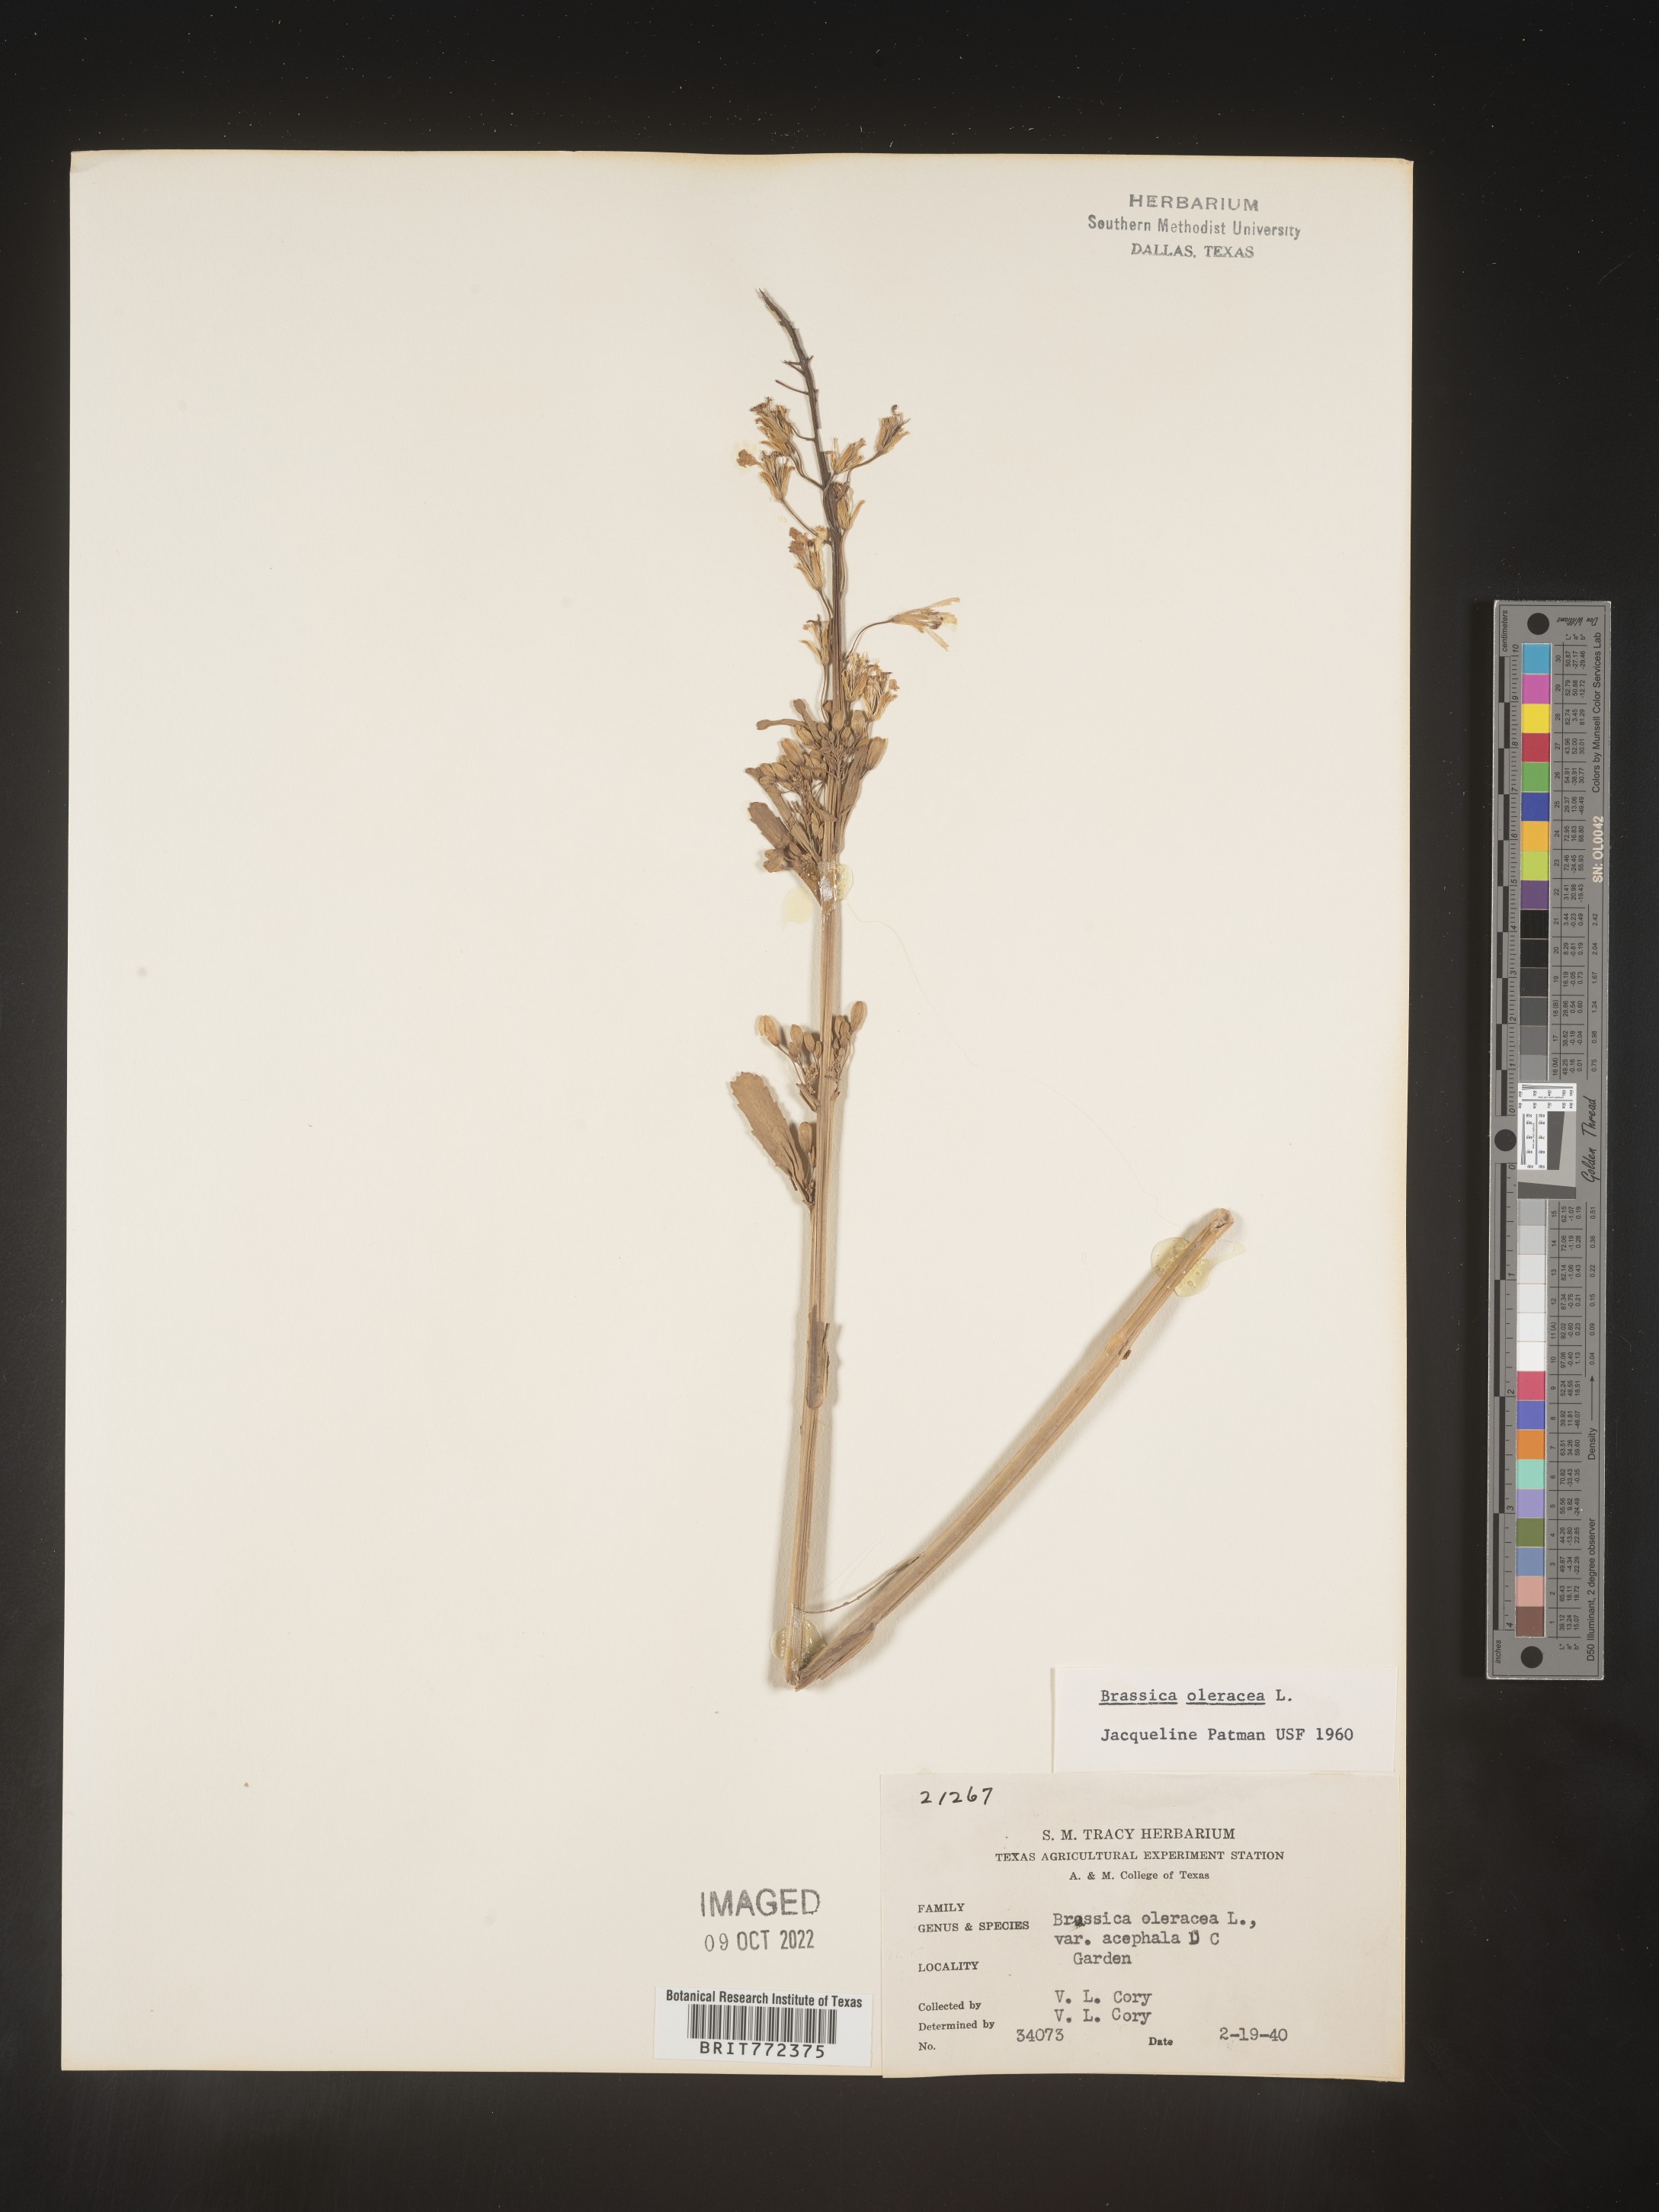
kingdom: Plantae
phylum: Tracheophyta
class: Magnoliopsida
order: Brassicales
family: Brassicaceae
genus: Brassica
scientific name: Brassica
